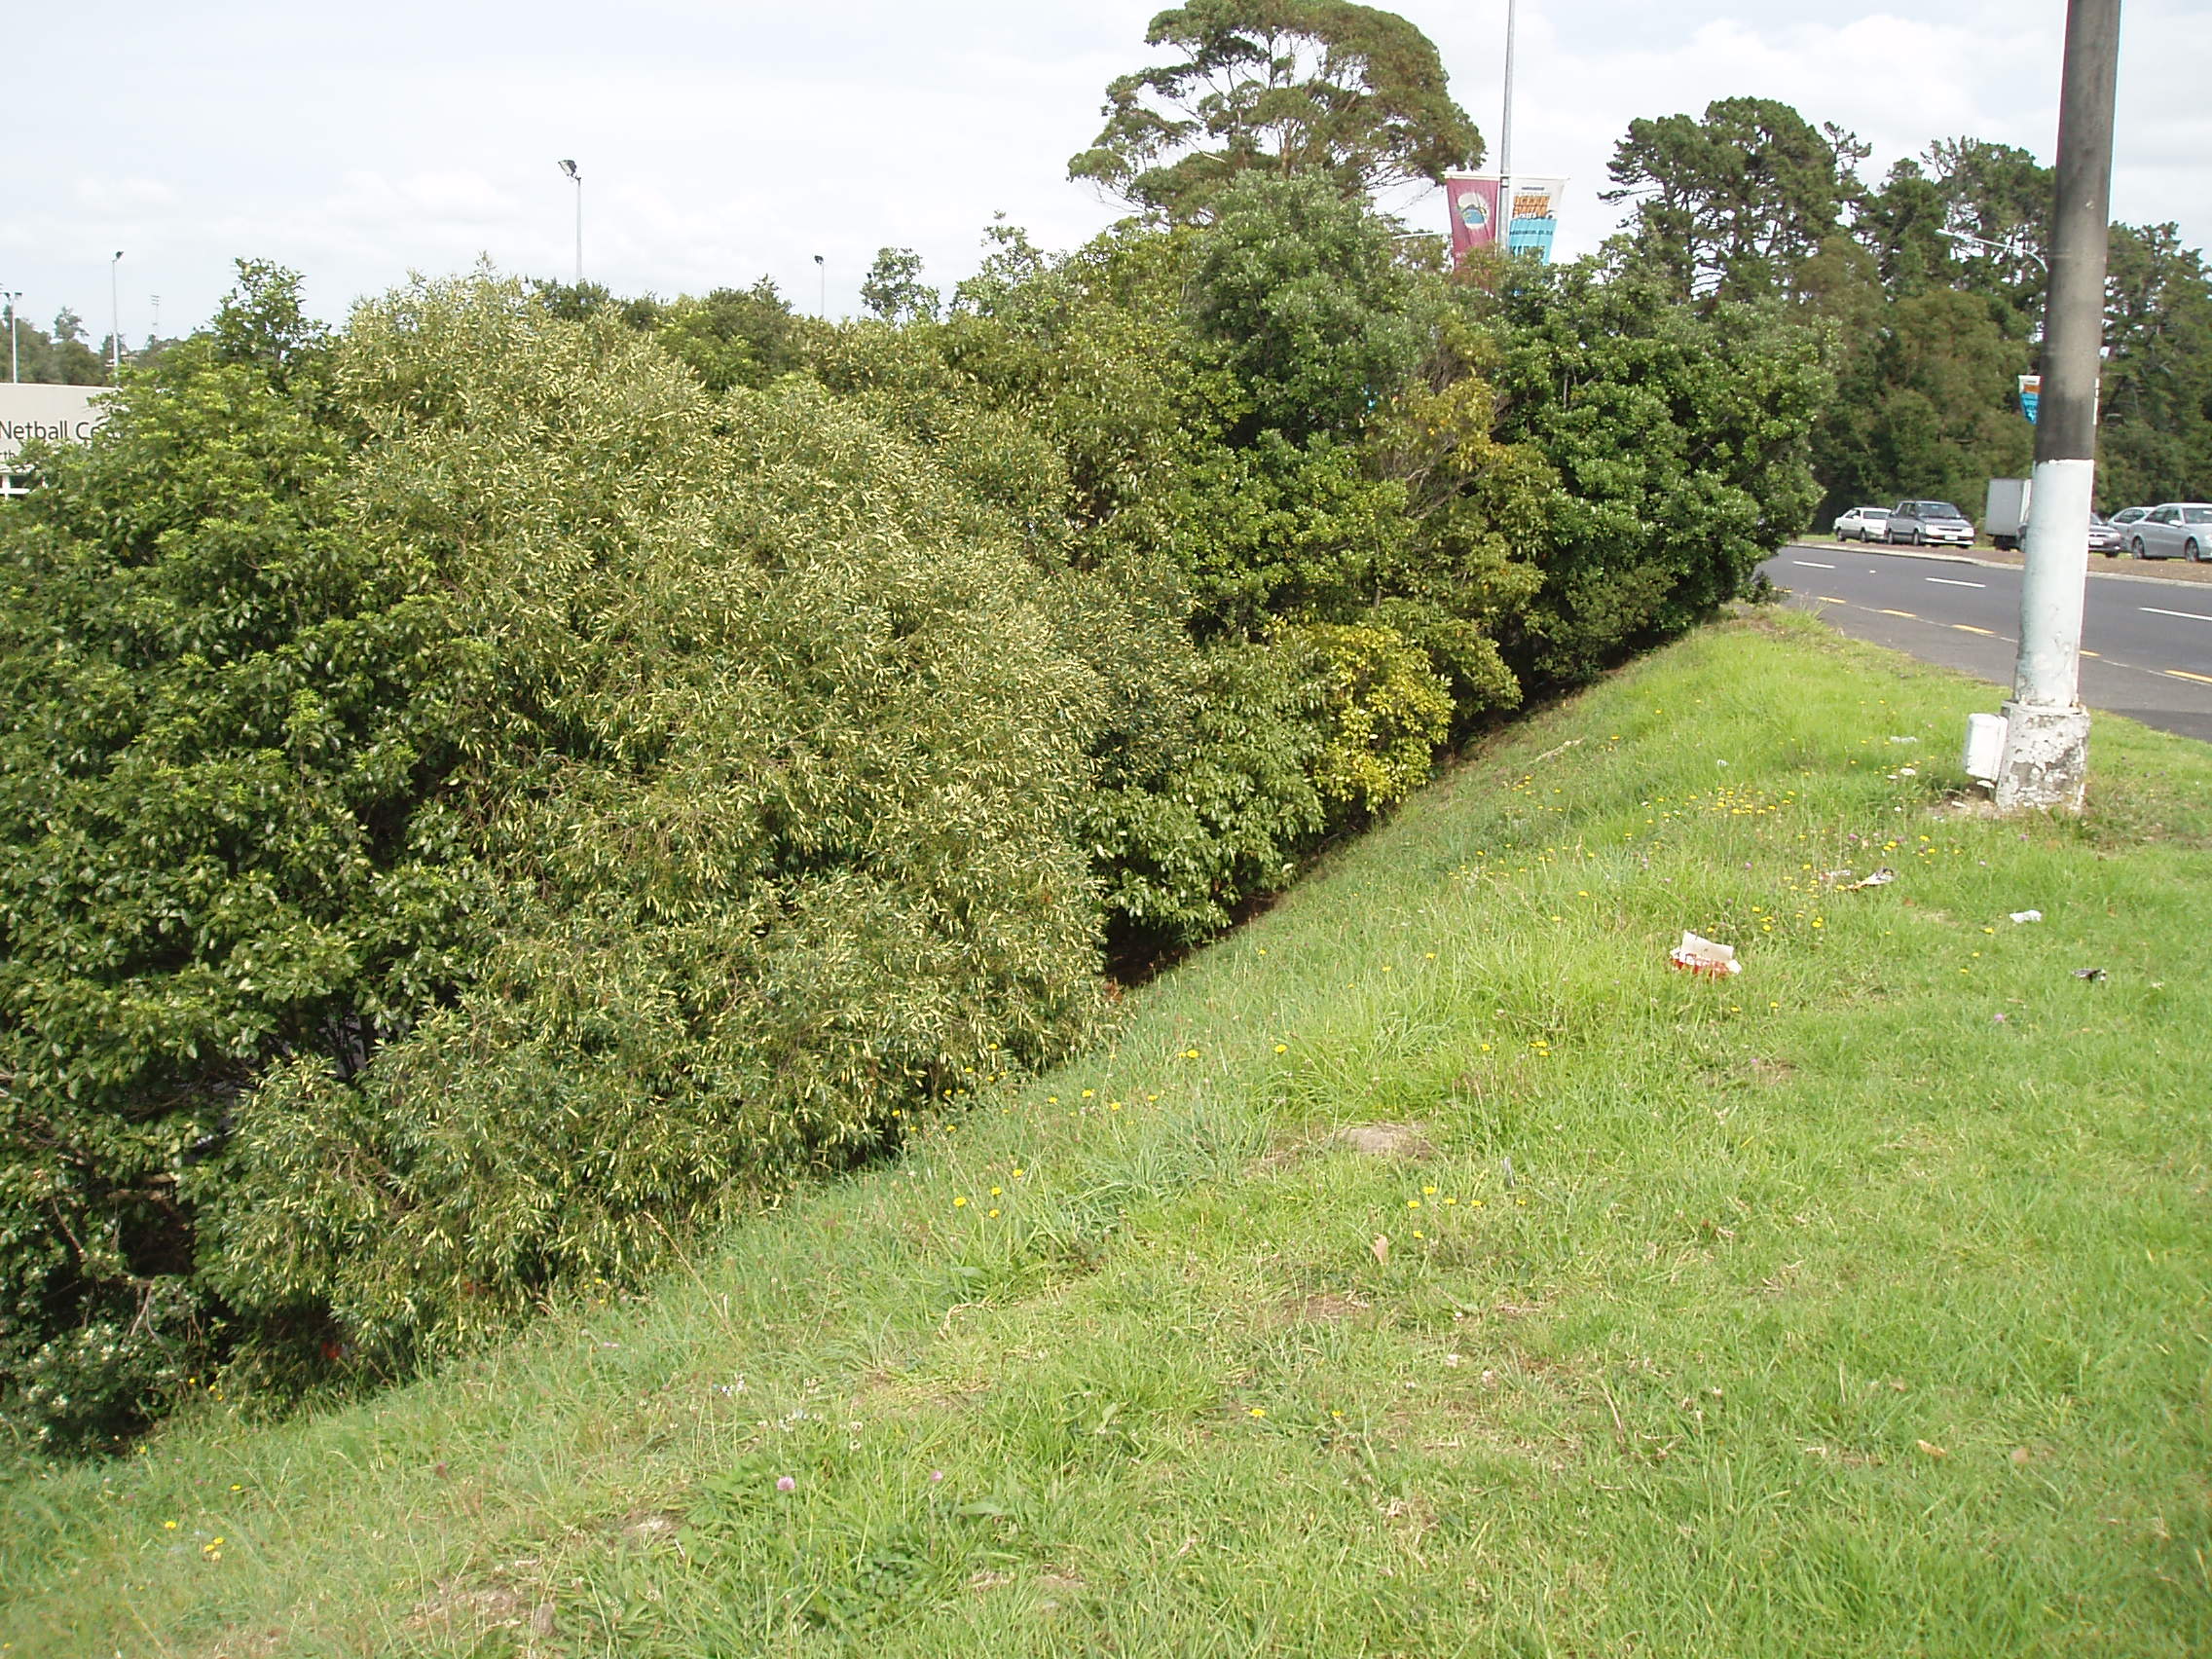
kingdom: Plantae
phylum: Tracheophyta
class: Magnoliopsida
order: Lamiales
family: Oleaceae
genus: Olea
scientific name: Olea europaea
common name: Olive
